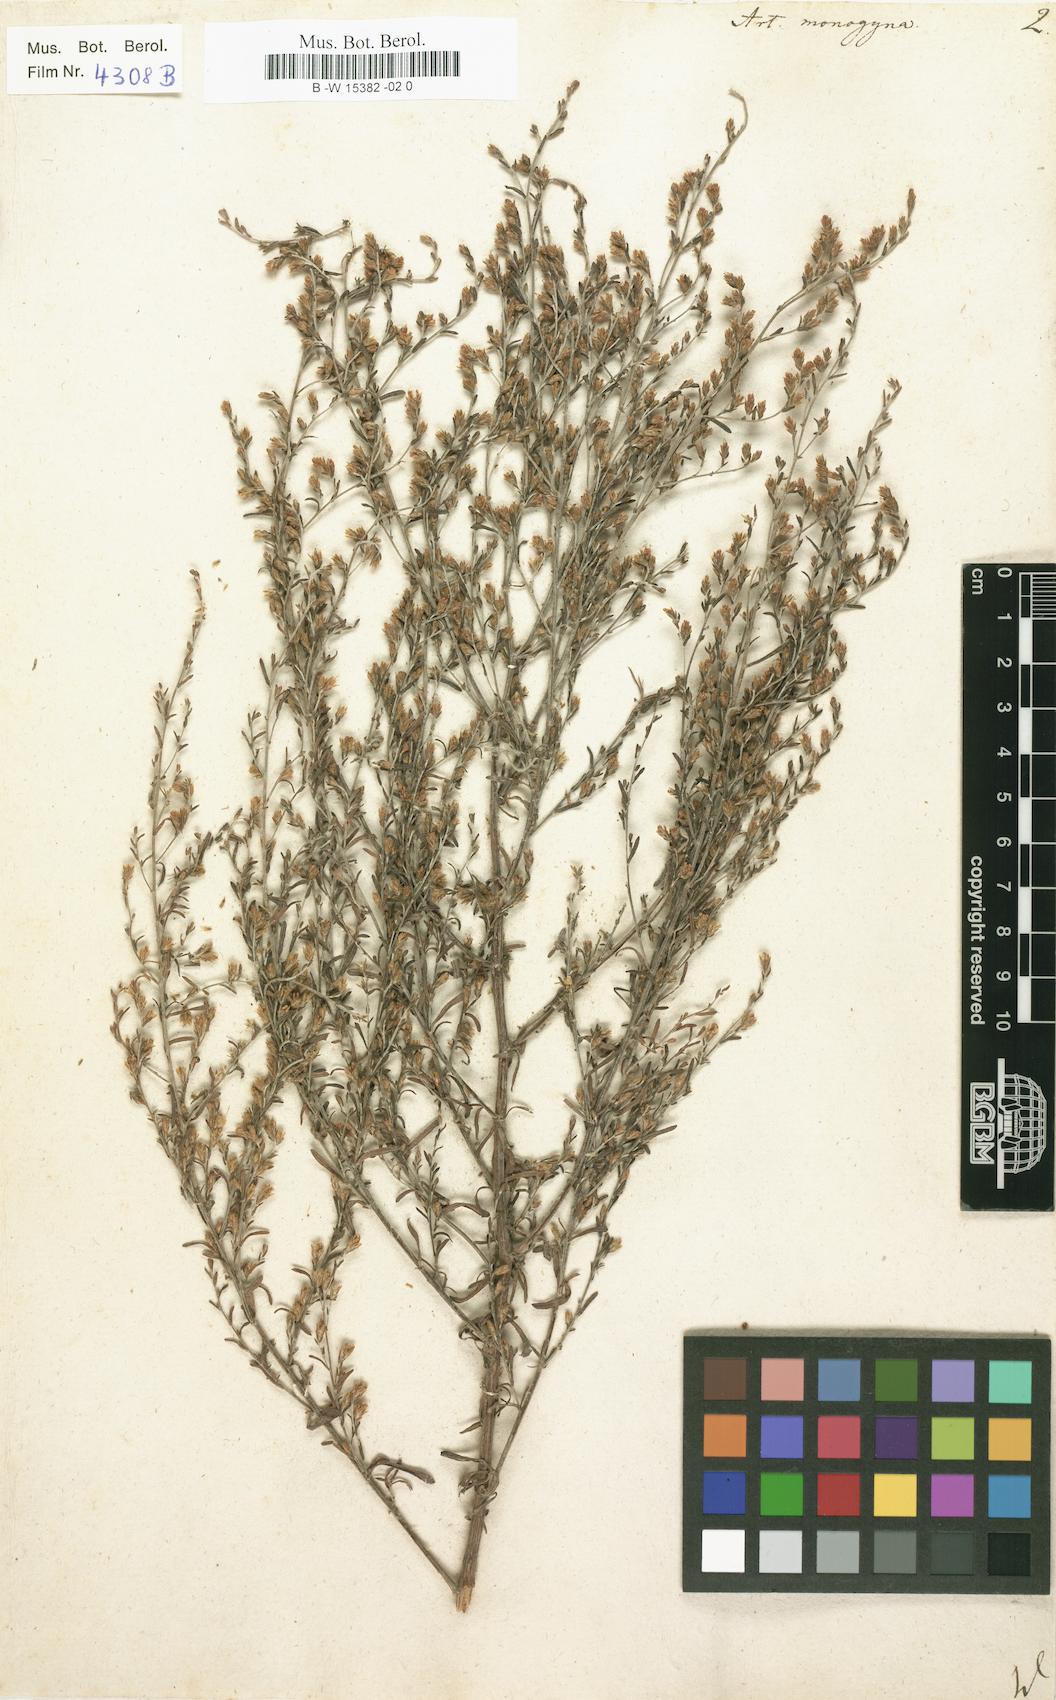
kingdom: Plantae
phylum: Tracheophyta
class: Magnoliopsida
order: Asterales
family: Asteraceae
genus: Artemisia
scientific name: Artemisia santonicum
